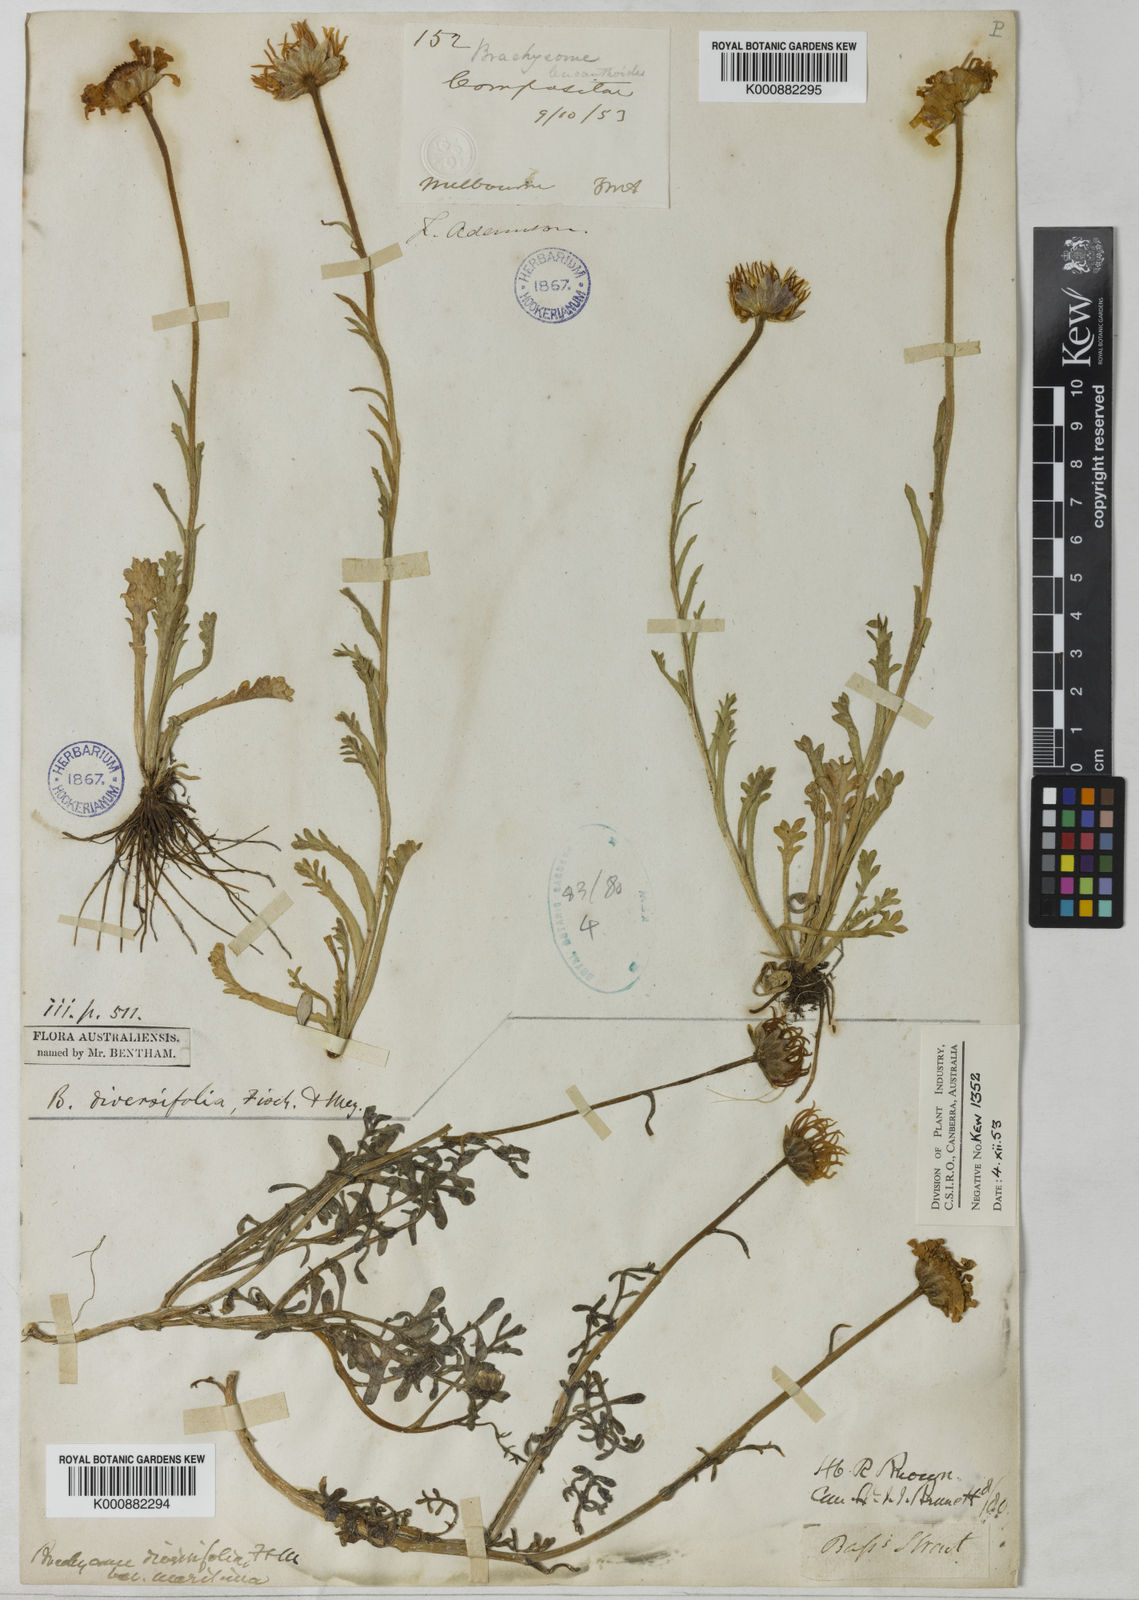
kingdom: Plantae
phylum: Tracheophyta
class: Magnoliopsida
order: Asterales
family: Asteraceae
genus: Brachyscome
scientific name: Brachyscome diversifolia
